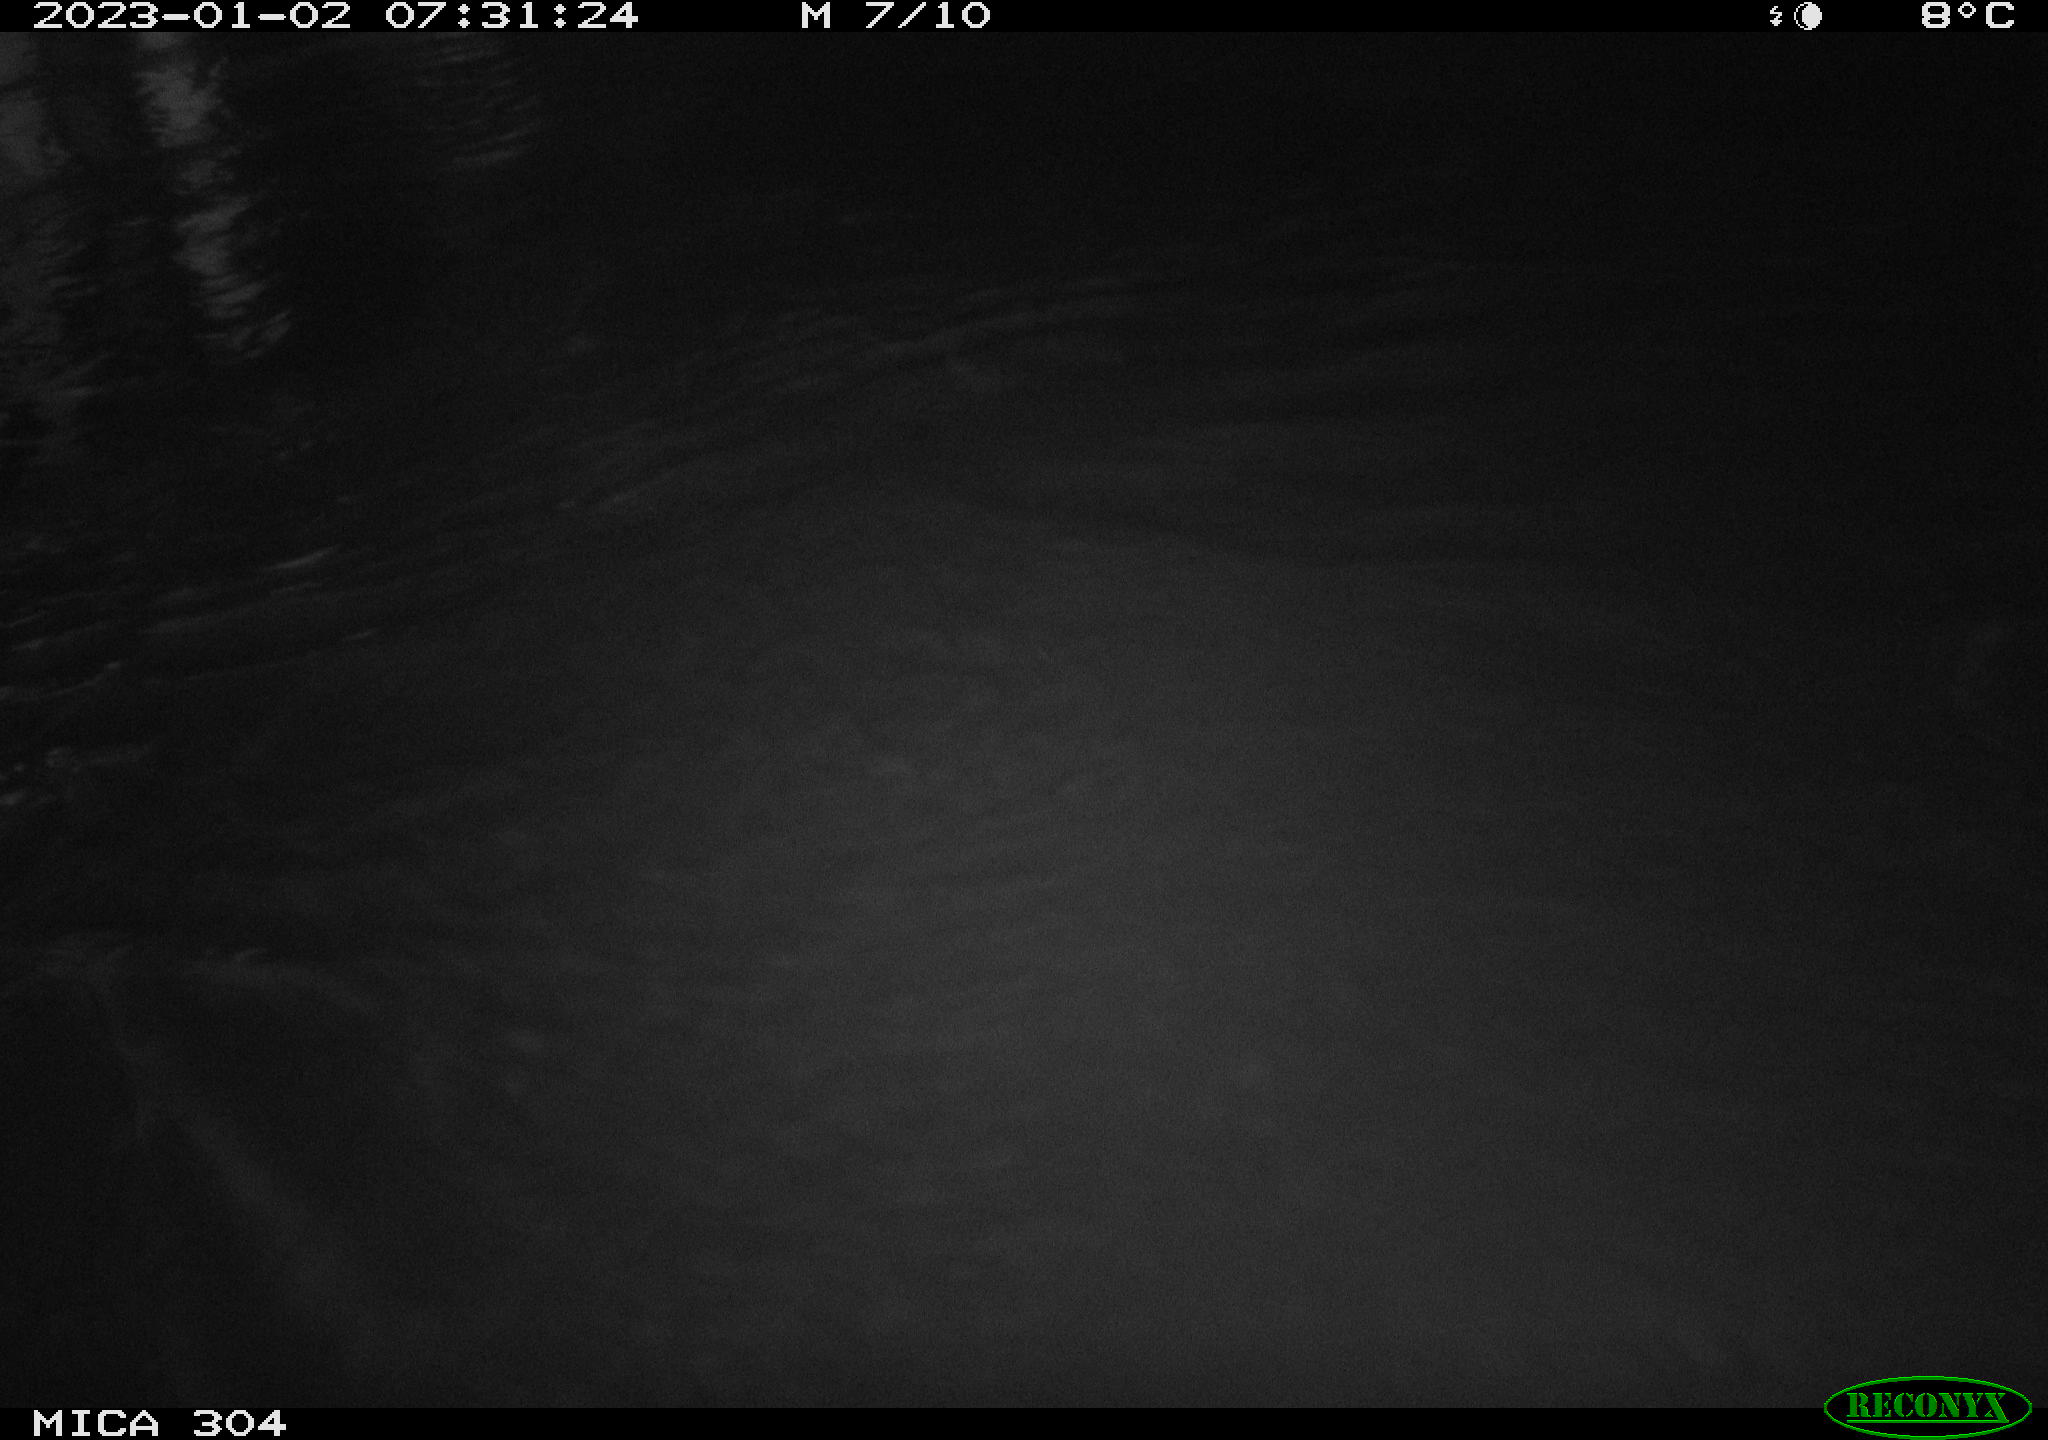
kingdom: Animalia
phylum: Chordata
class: Aves
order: Anseriformes
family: Anatidae
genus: Anas
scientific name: Anas
